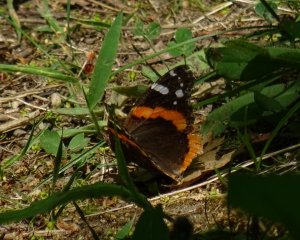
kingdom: Animalia
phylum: Arthropoda
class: Insecta
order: Lepidoptera
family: Nymphalidae
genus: Vanessa
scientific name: Vanessa atalanta
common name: Red Admiral
